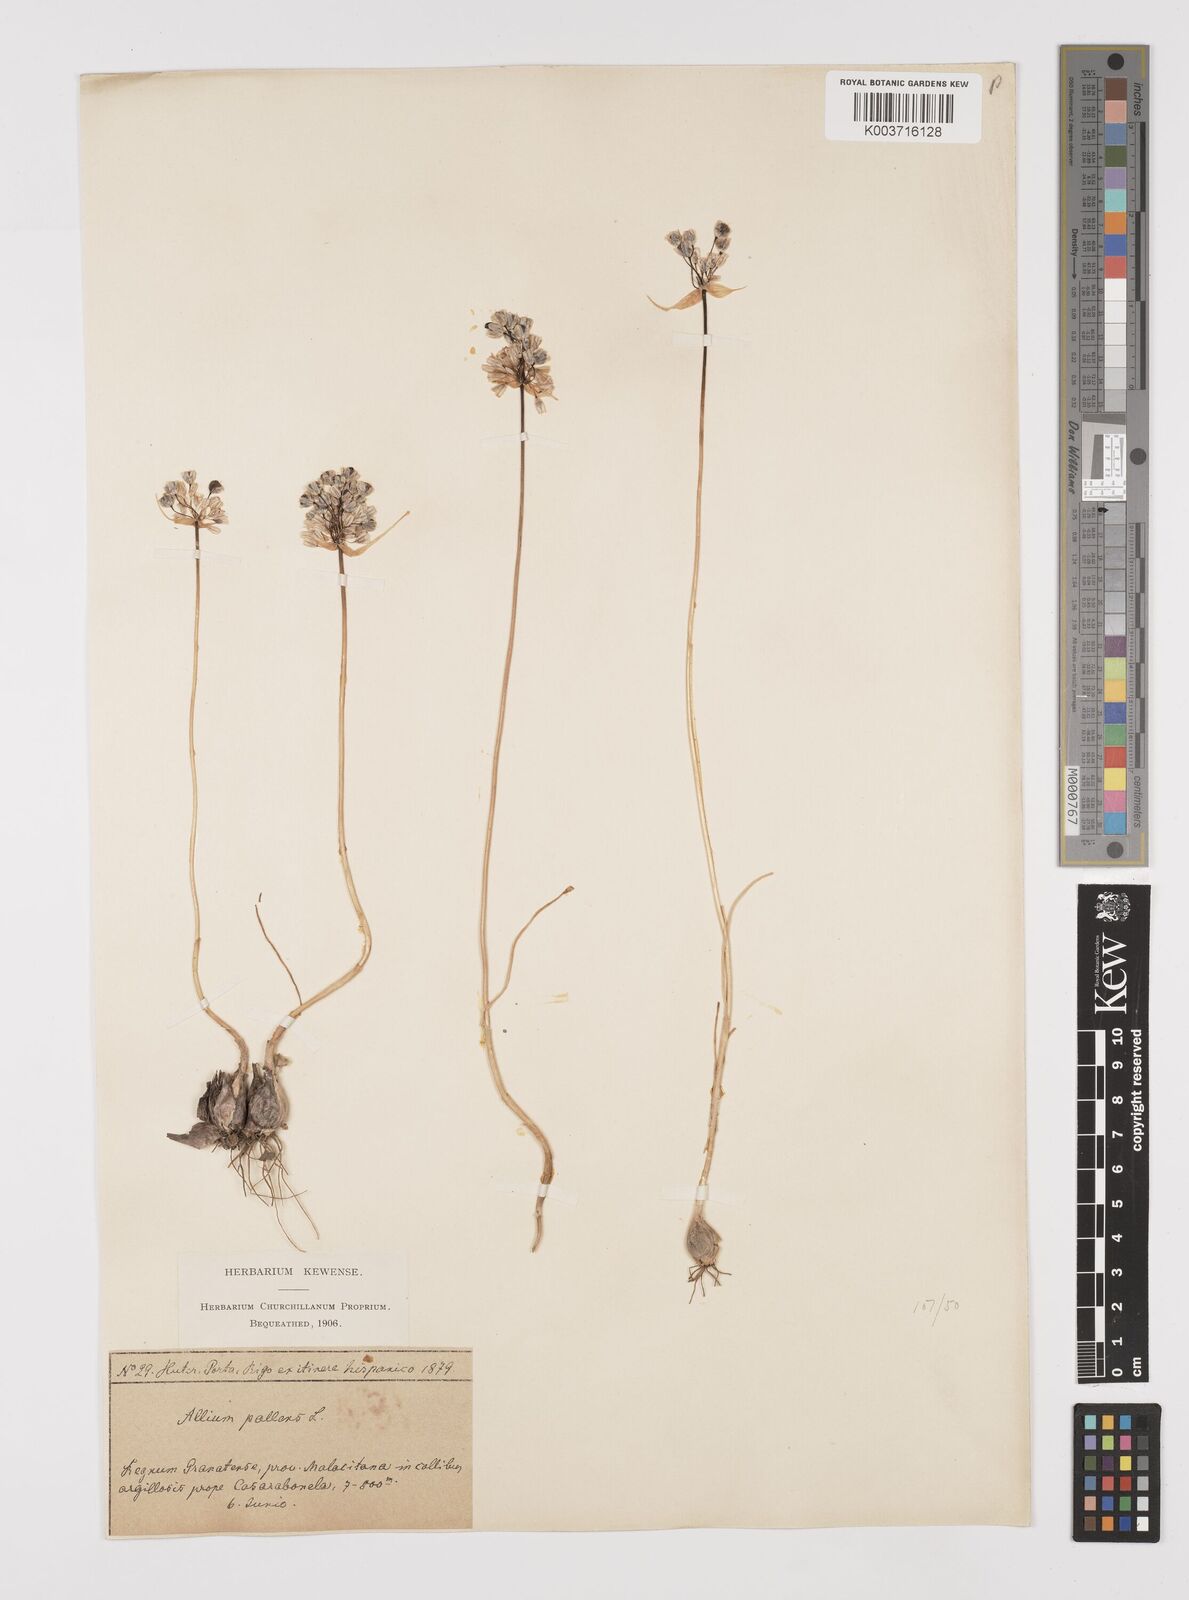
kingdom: Plantae
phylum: Tracheophyta
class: Liliopsida
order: Asparagales
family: Amaryllidaceae
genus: Allium
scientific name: Allium pallens
